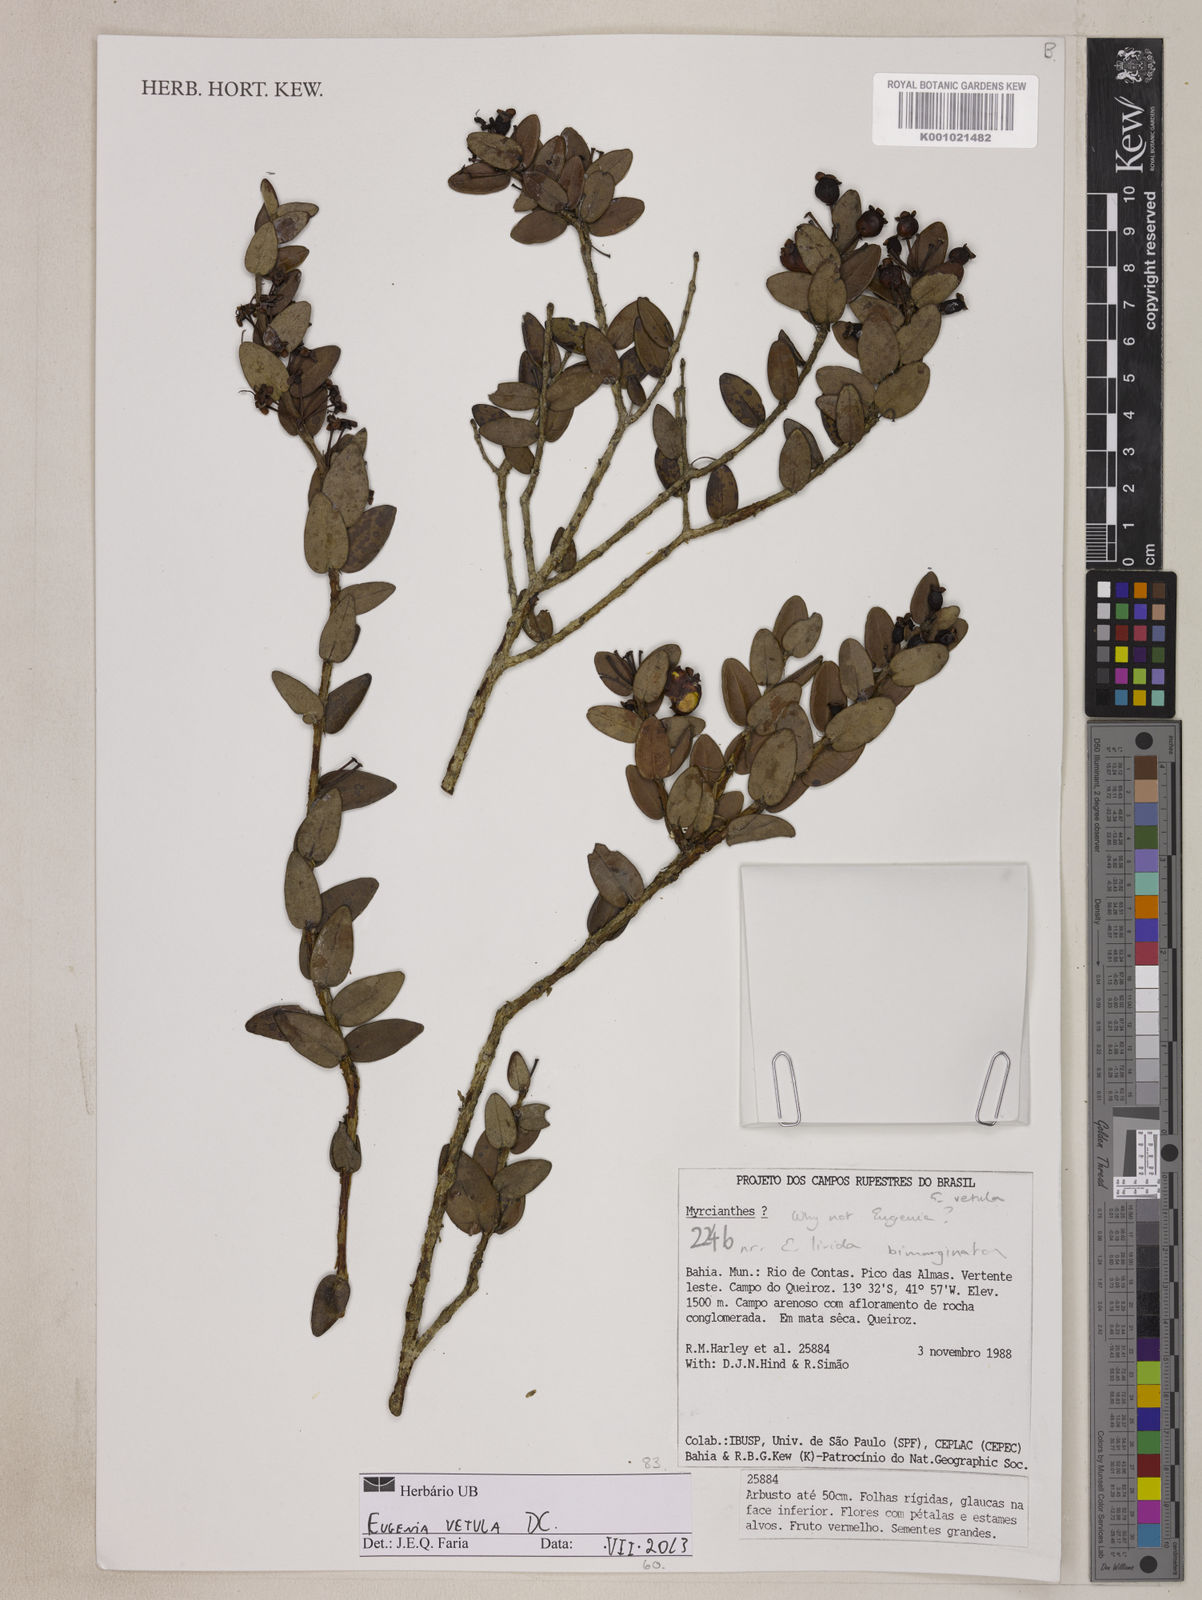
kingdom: Plantae
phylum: Tracheophyta
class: Magnoliopsida
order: Myrtales
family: Myrtaceae
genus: Eugenia
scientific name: Eugenia vetula
